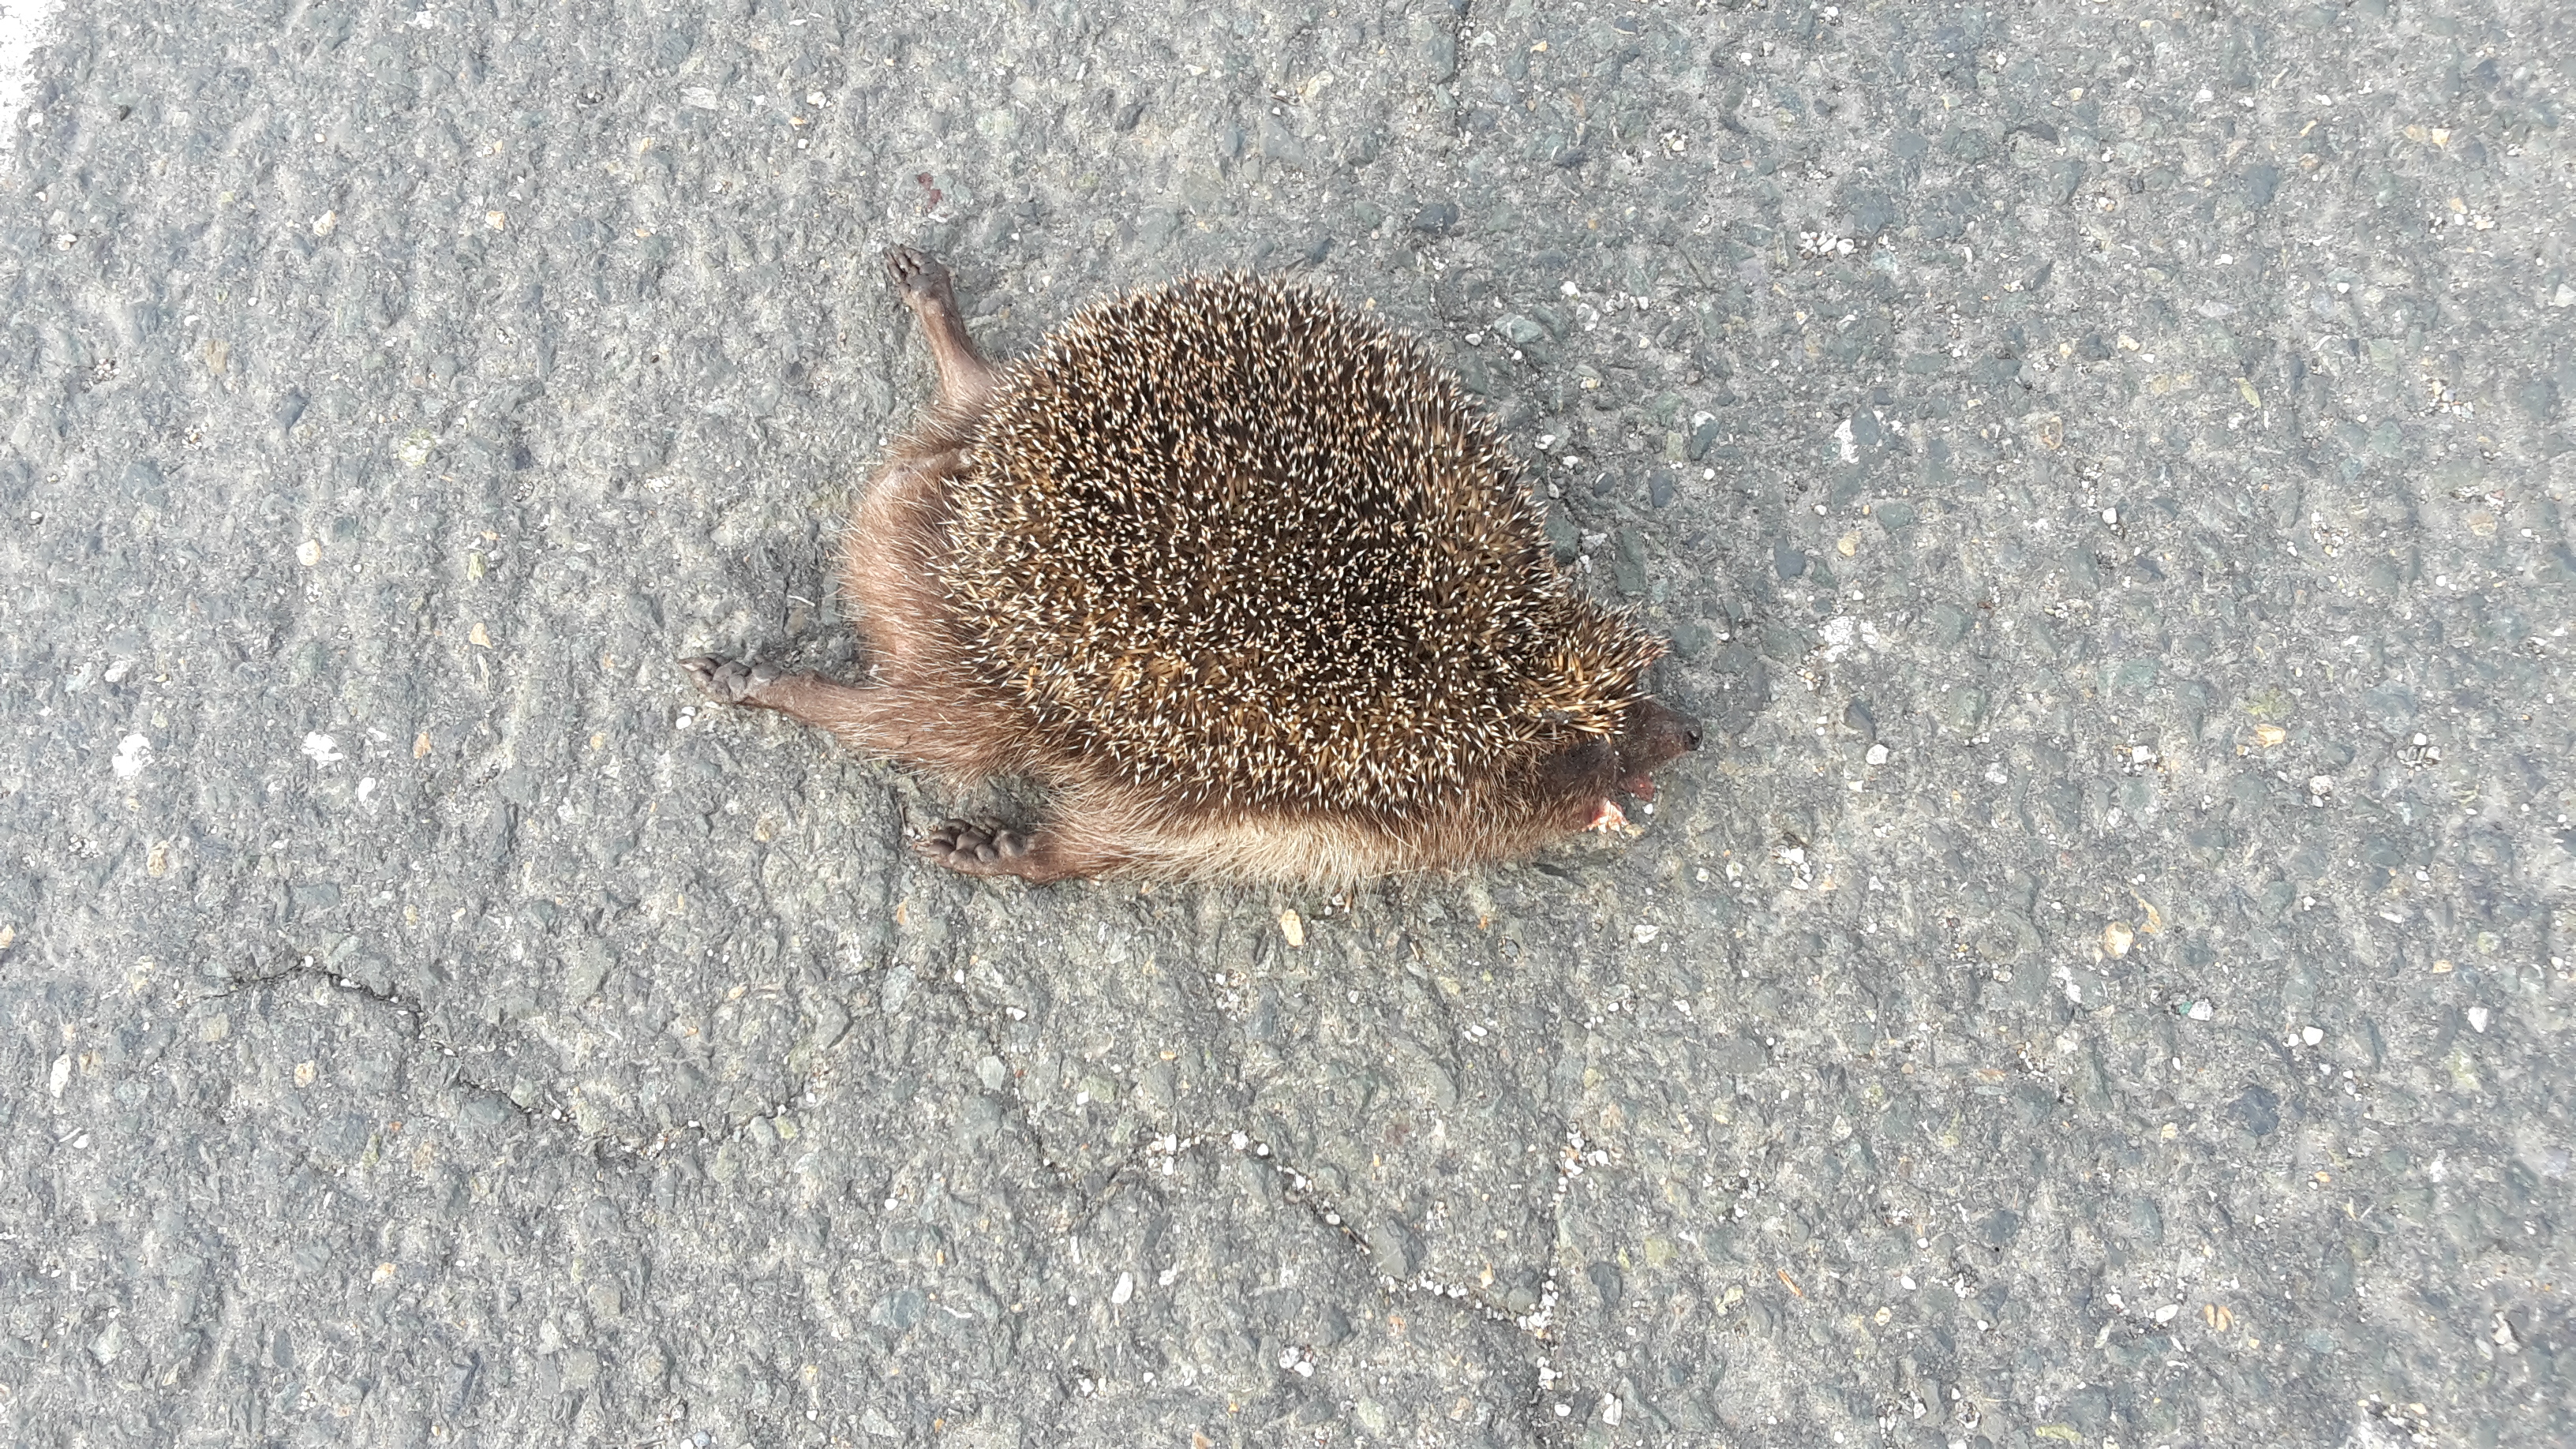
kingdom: Animalia
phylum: Chordata
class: Mammalia
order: Erinaceomorpha
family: Erinaceidae
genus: Erinaceus
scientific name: Erinaceus
